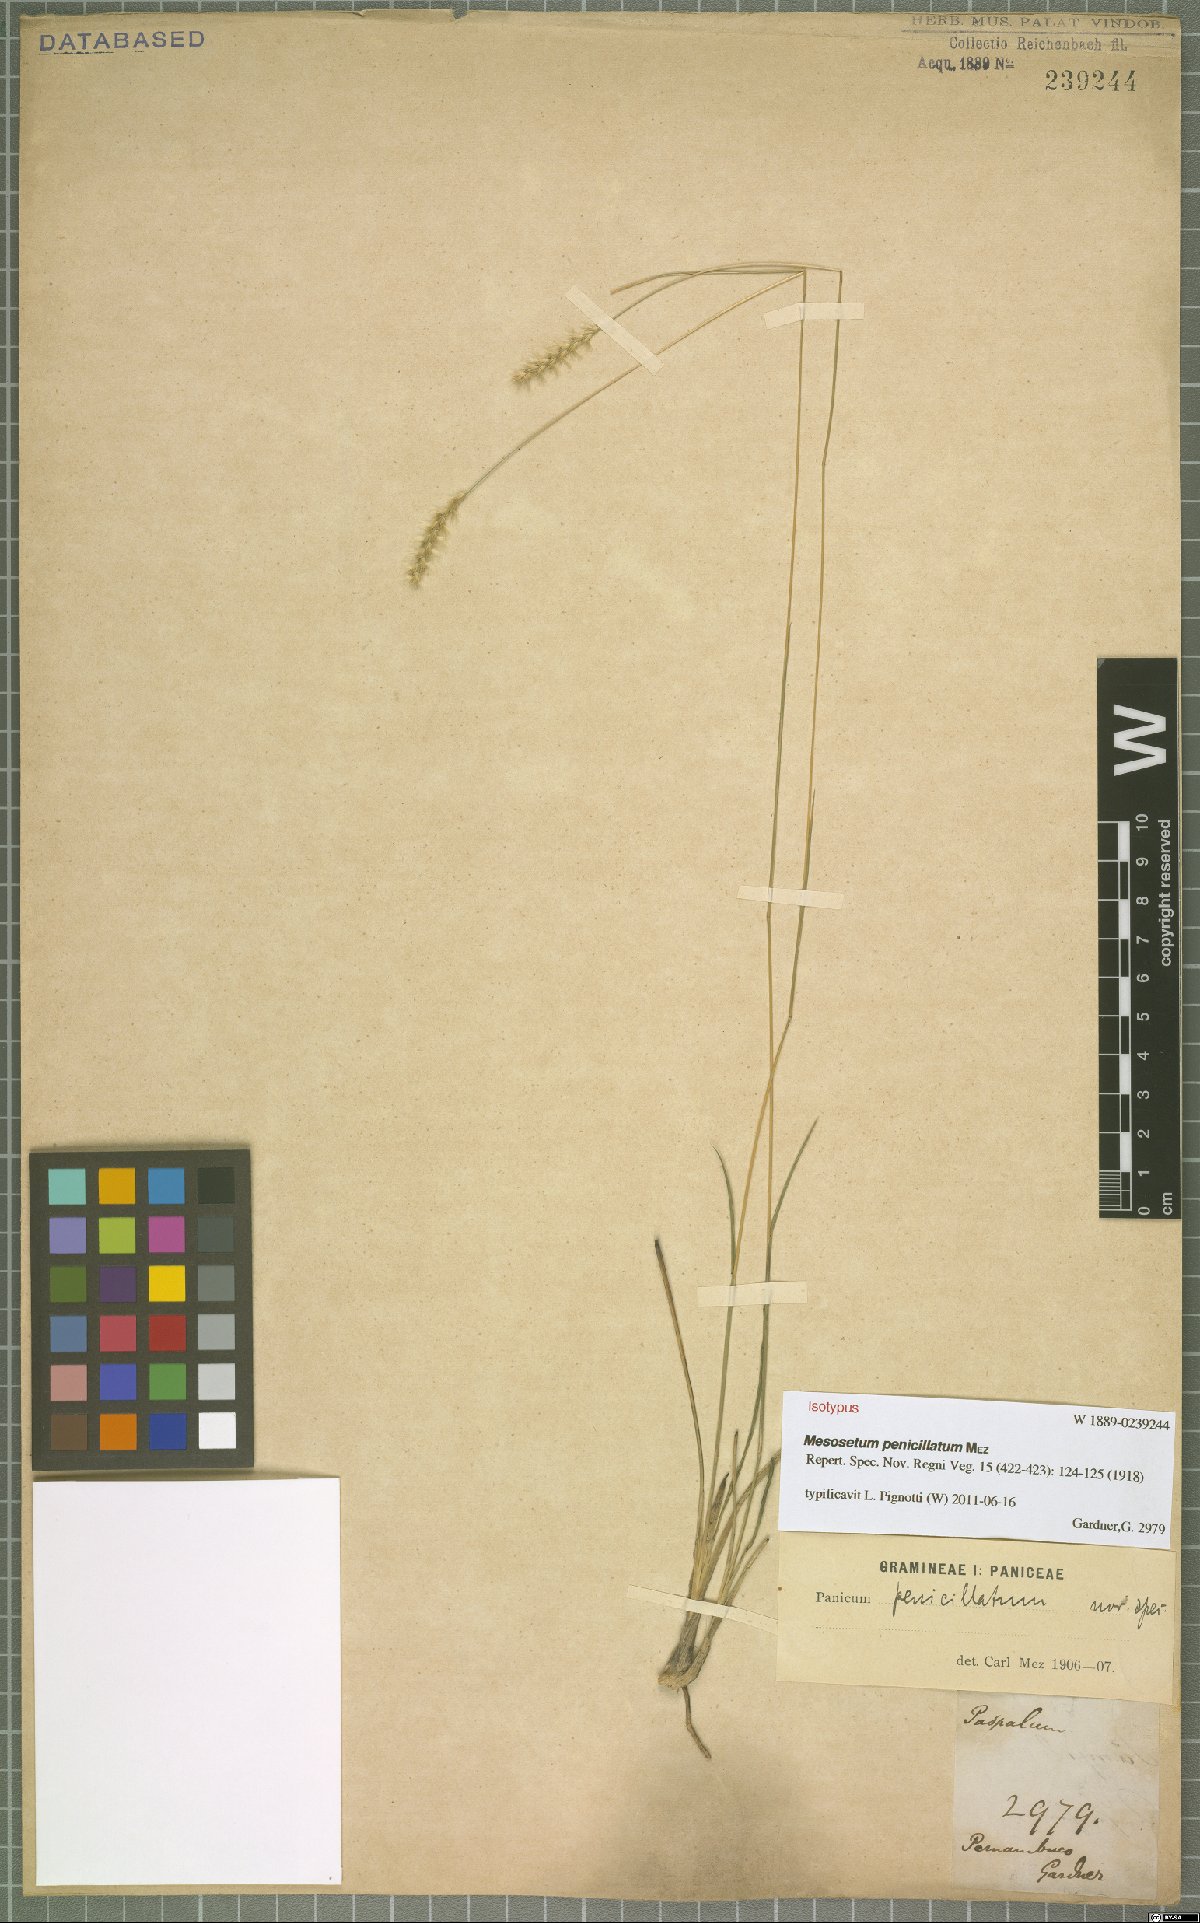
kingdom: Plantae
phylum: Tracheophyta
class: Liliopsida
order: Poales
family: Poaceae
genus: Mesosetum
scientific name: Mesosetum penicillatum
